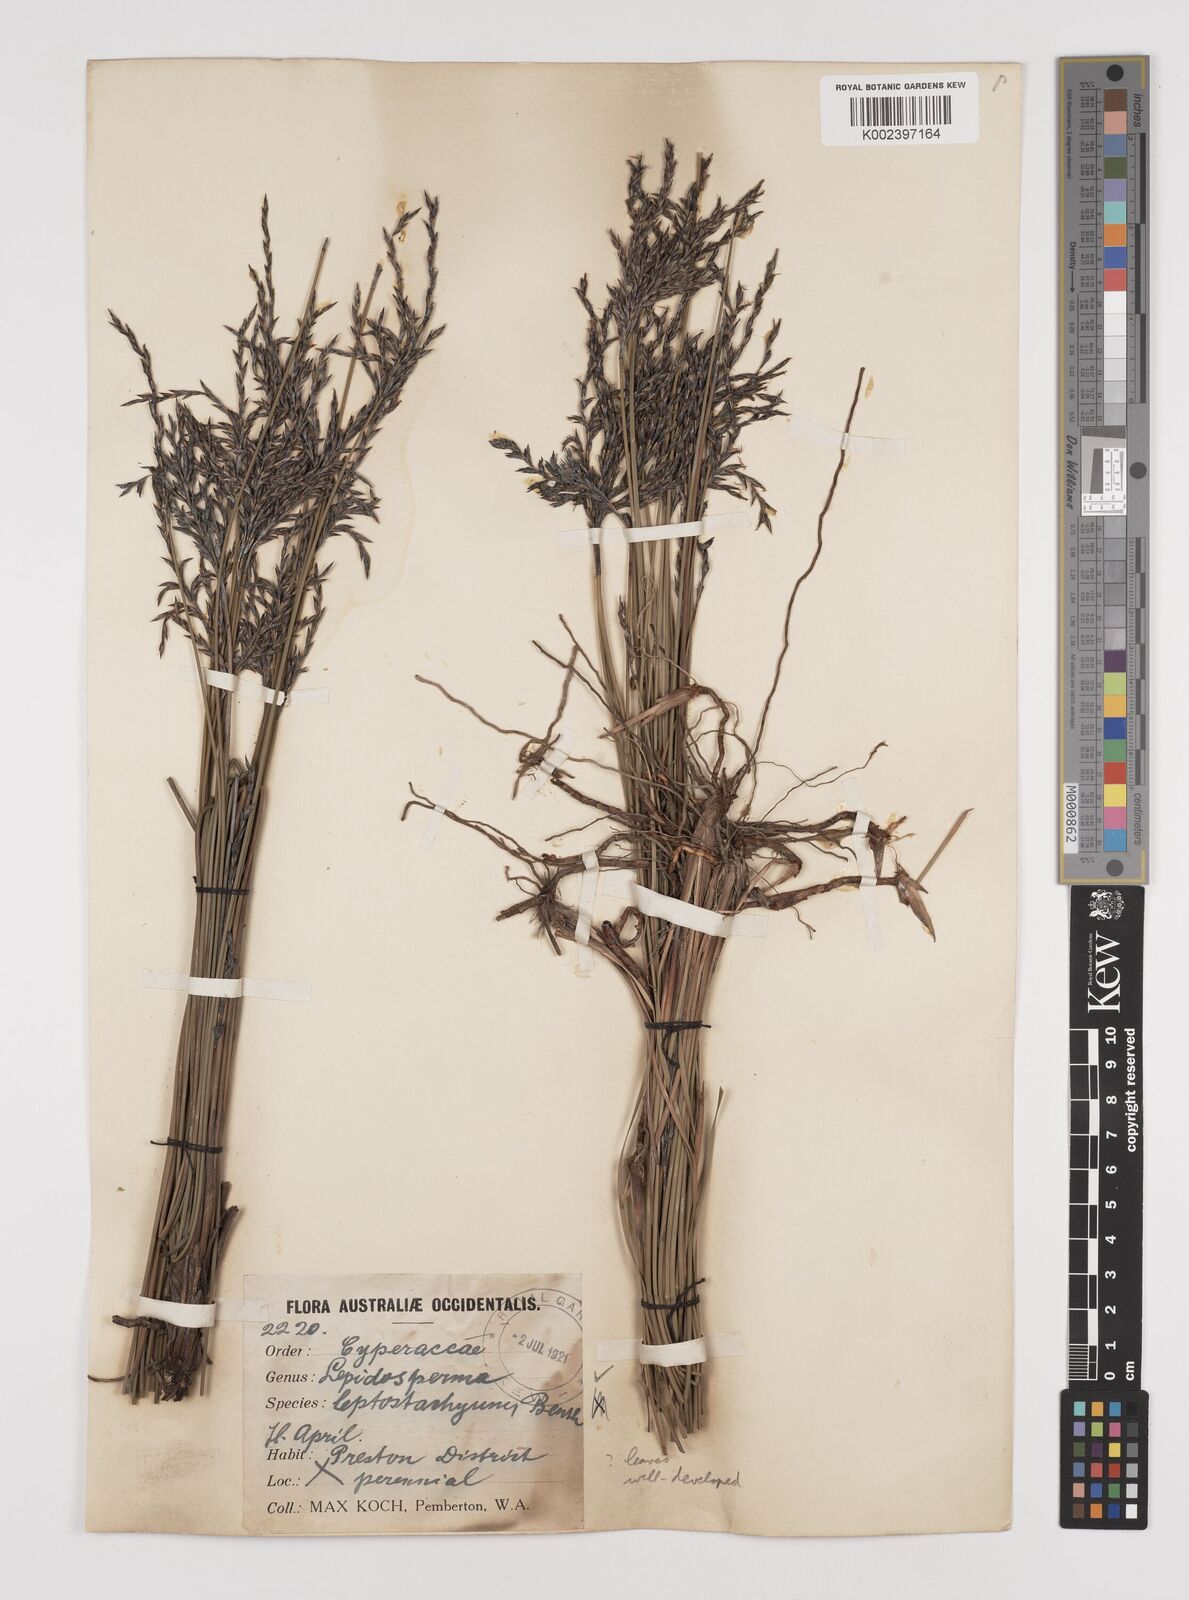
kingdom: Plantae
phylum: Tracheophyta
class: Liliopsida
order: Poales
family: Cyperaceae
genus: Lepidosperma
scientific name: Lepidosperma leptostachyum
